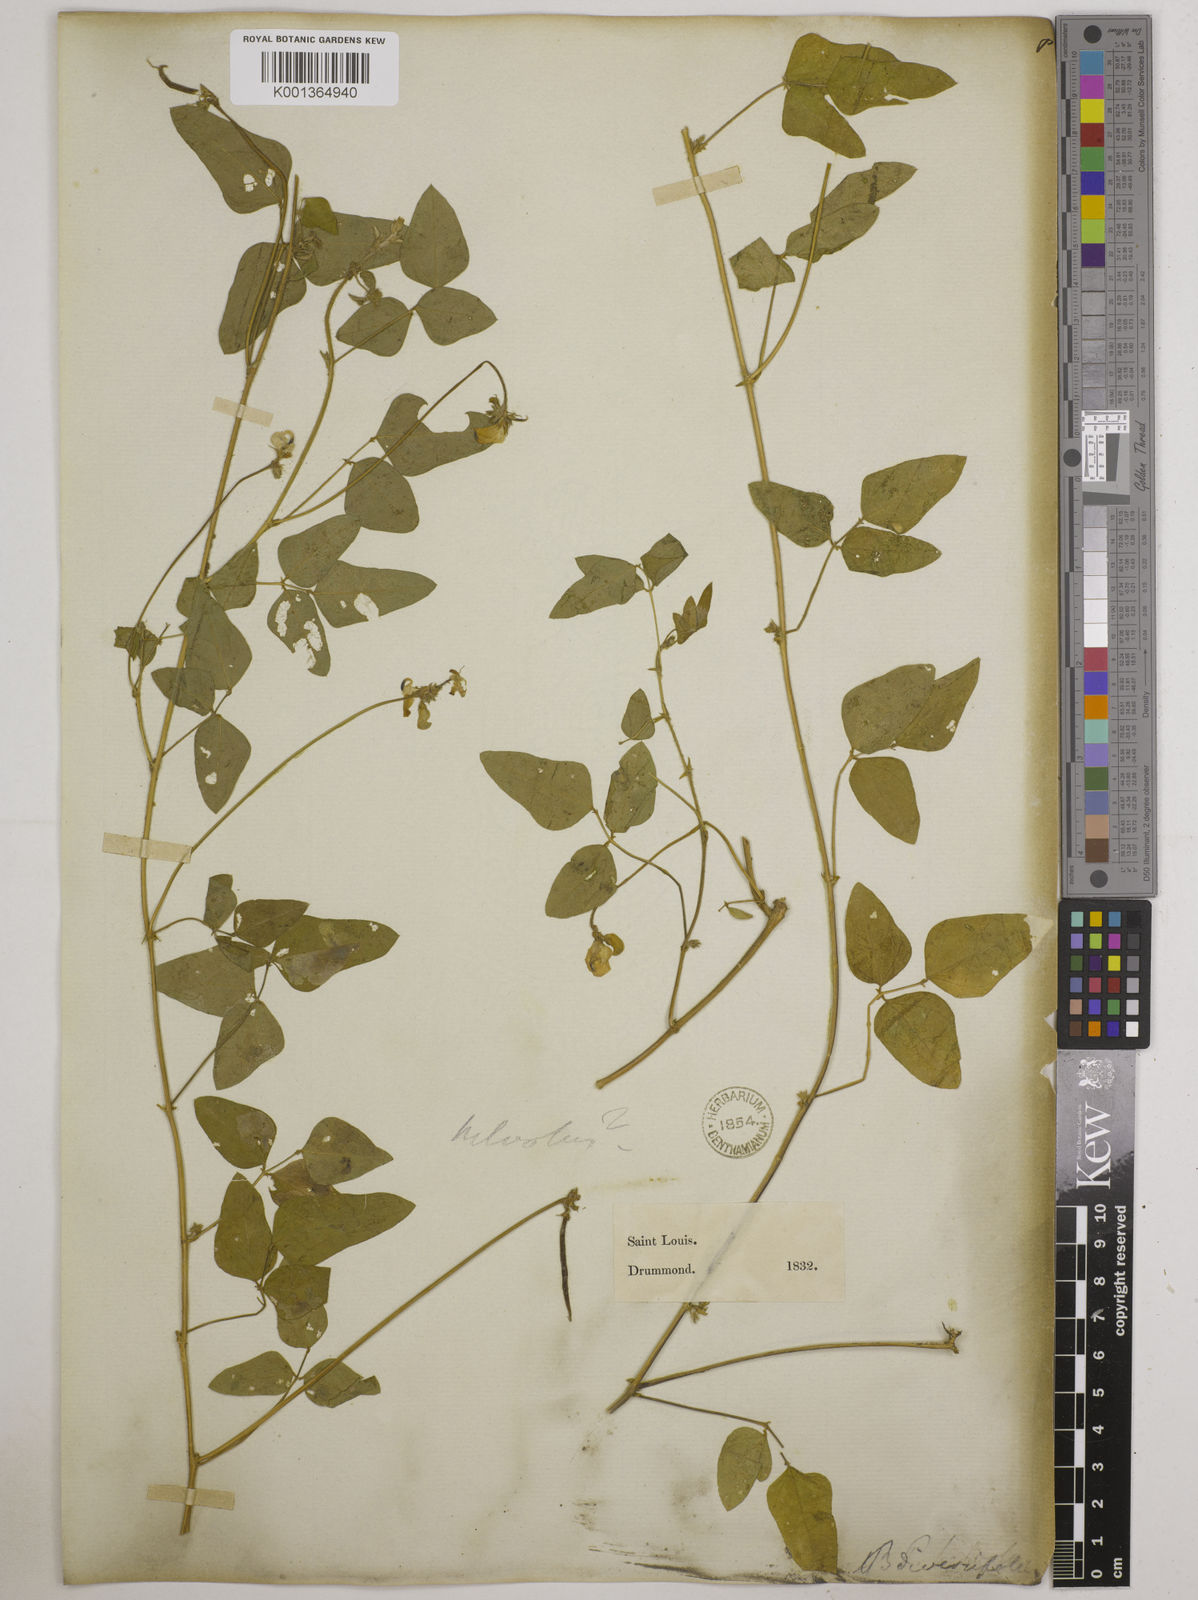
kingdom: Plantae
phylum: Tracheophyta
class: Magnoliopsida
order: Fabales
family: Fabaceae
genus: Strophostyles
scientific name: Strophostyles
